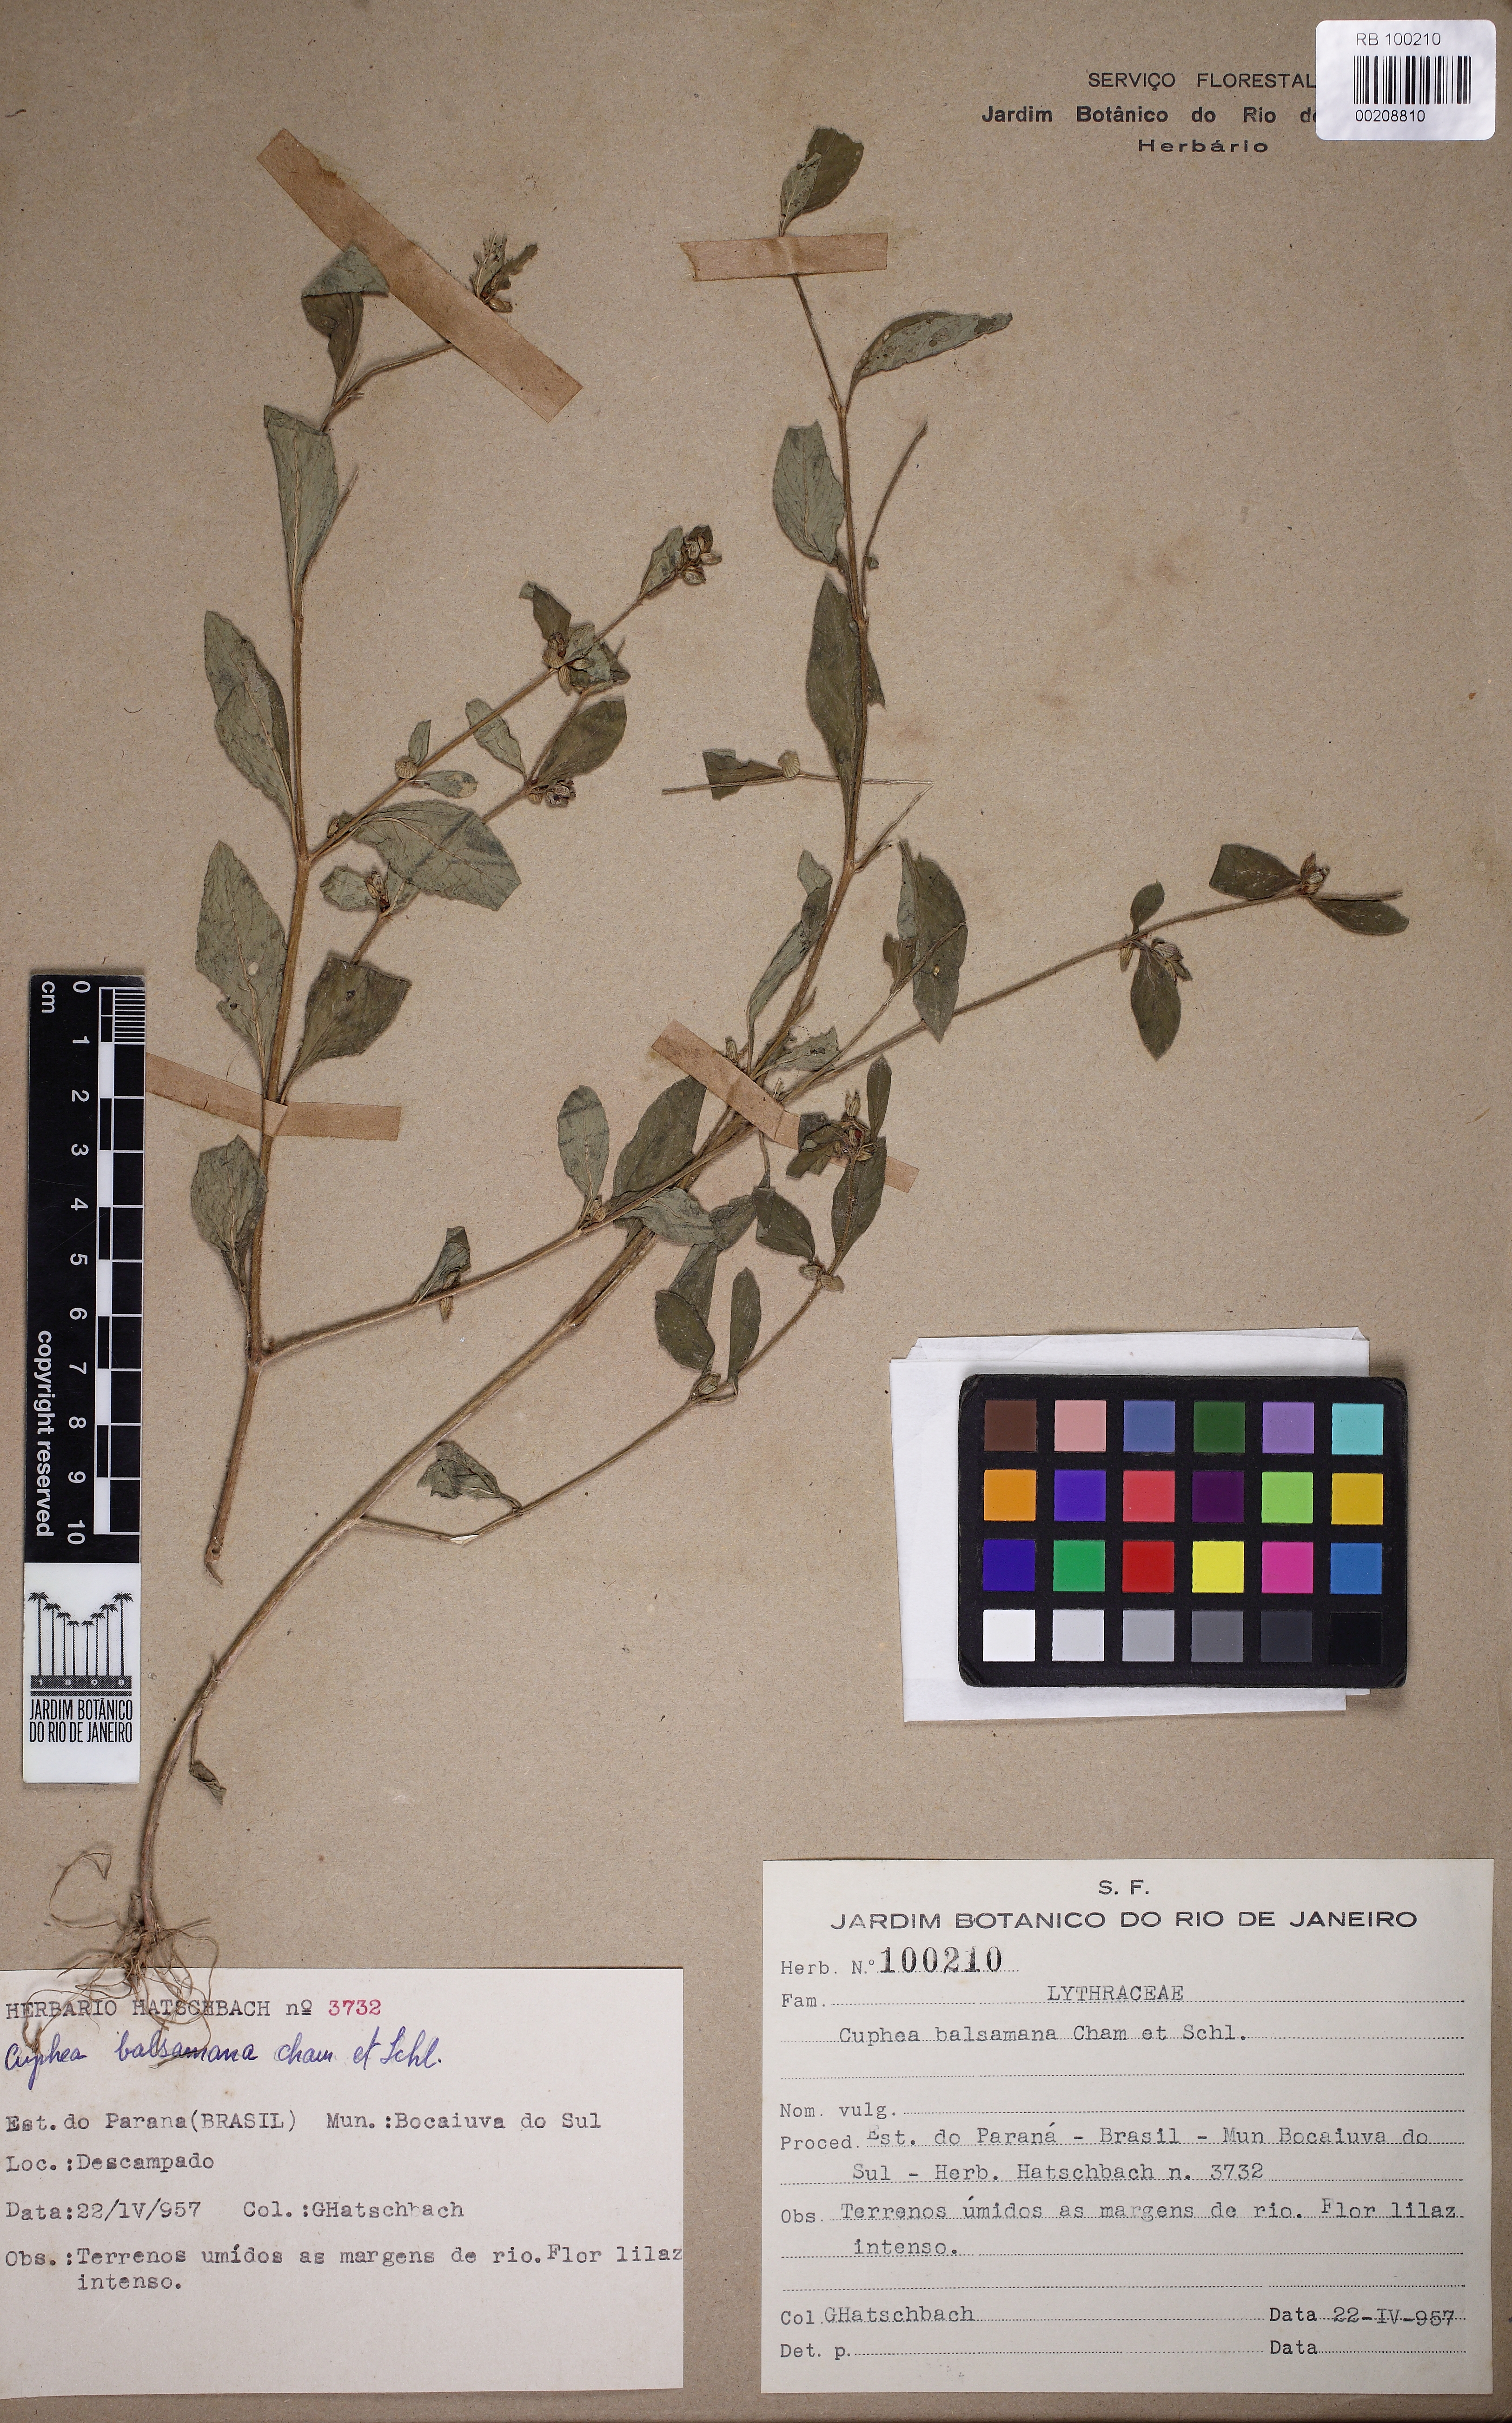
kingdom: Plantae
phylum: Tracheophyta
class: Magnoliopsida
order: Myrtales
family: Lythraceae
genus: Cuphea
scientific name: Cuphea carthagenensis
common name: Colombian waxweed
